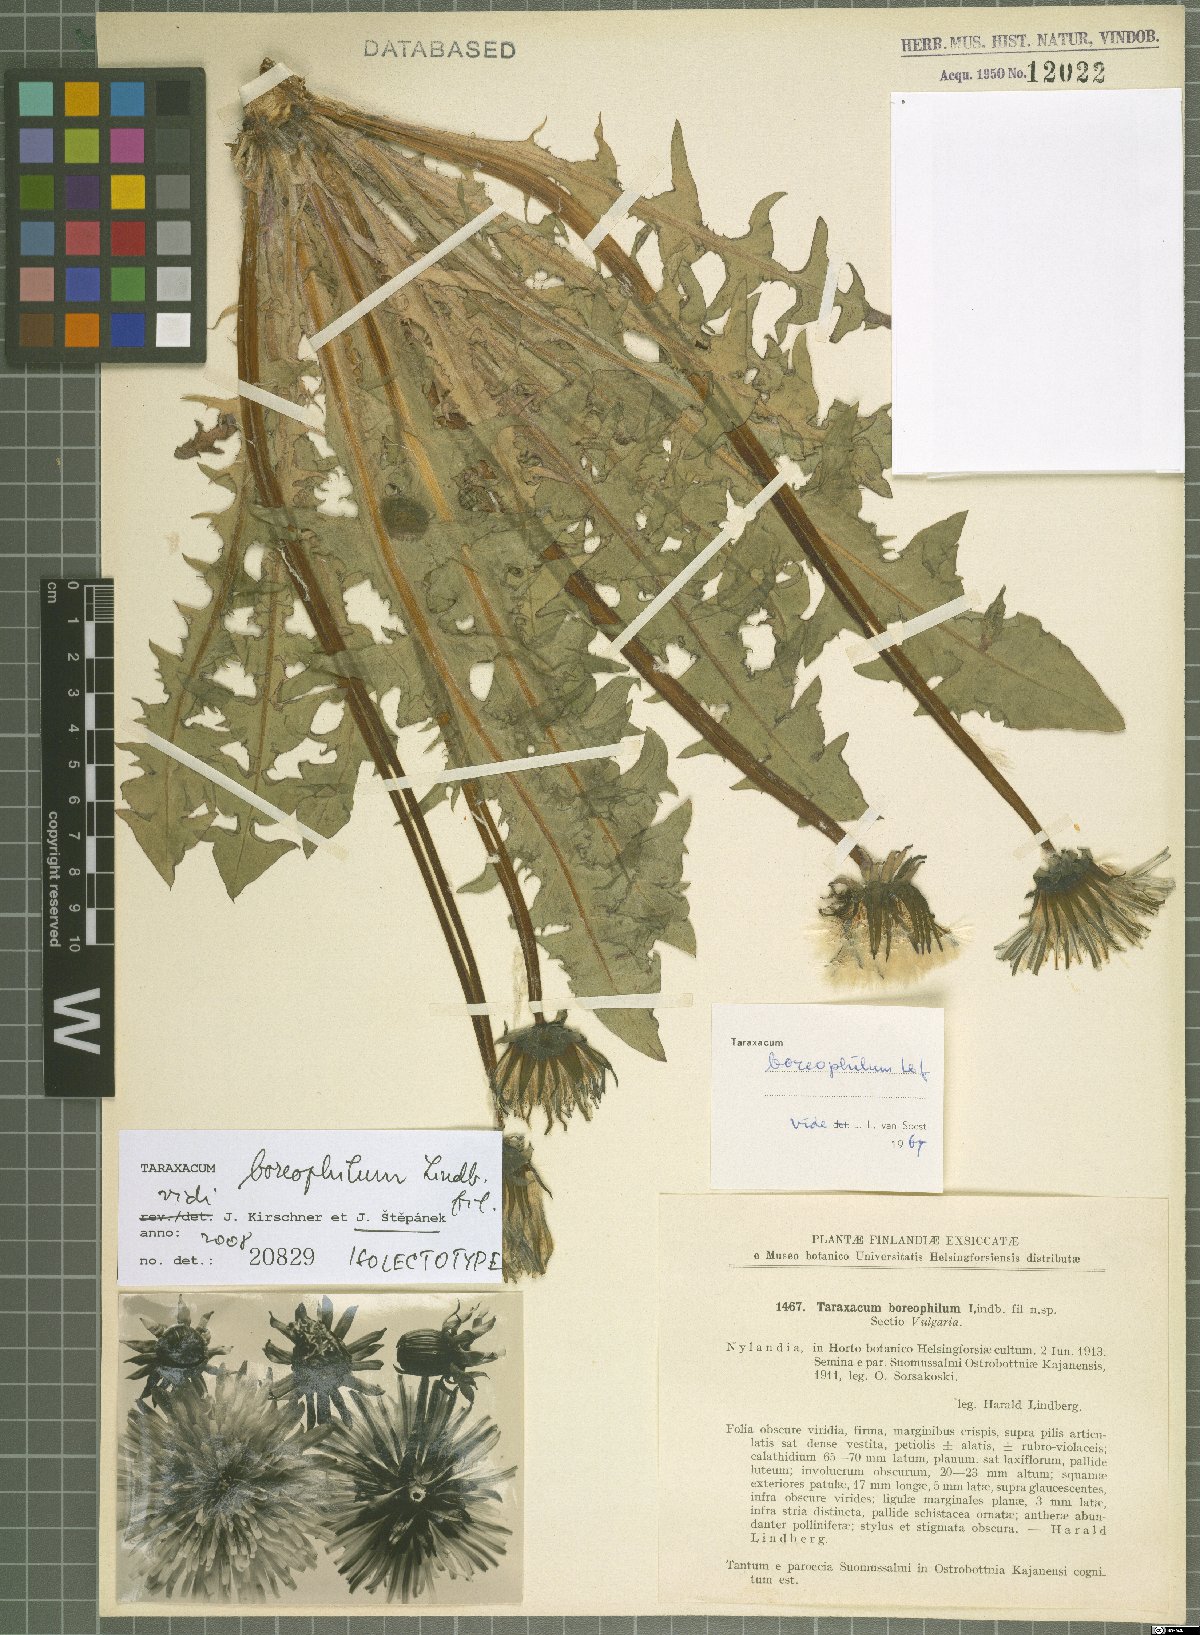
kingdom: Plantae
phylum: Tracheophyta
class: Magnoliopsida
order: Asterales
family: Asteraceae
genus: Taraxacum
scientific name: Taraxacum boreophilum
